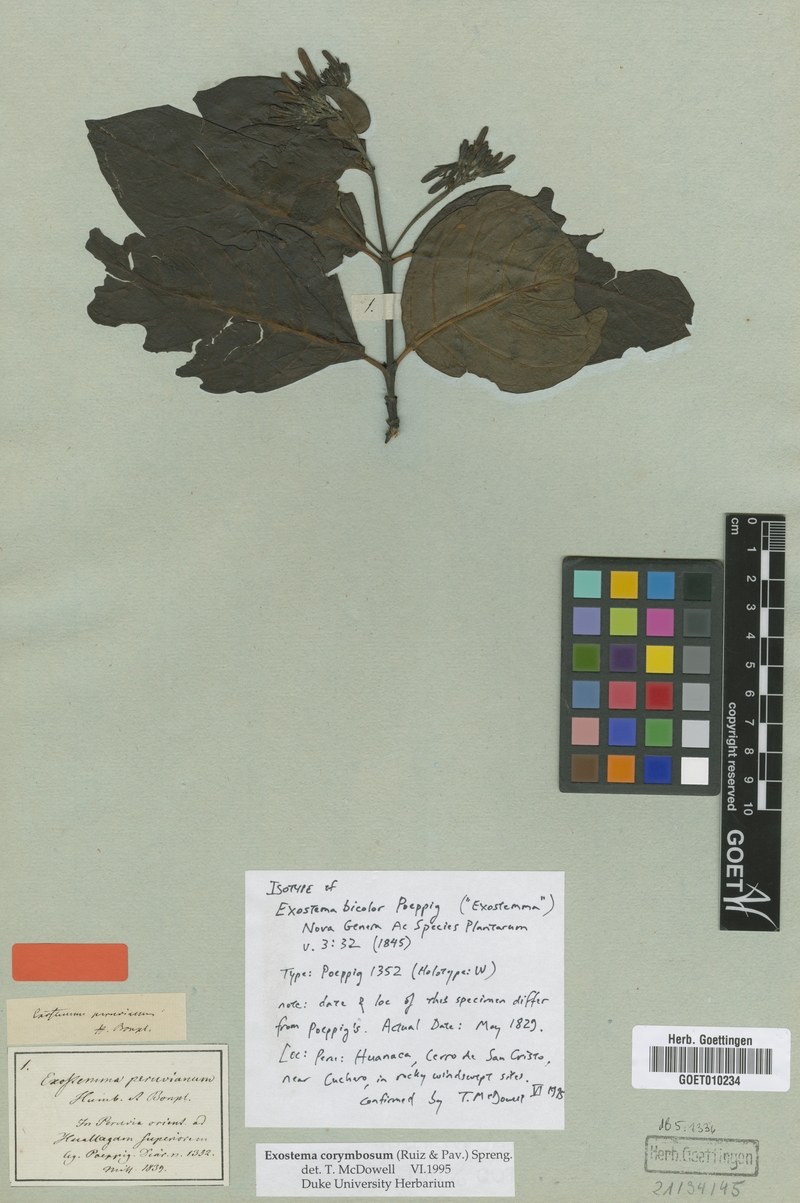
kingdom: Plantae
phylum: Tracheophyta
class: Magnoliopsida
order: Gentianales
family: Rubiaceae
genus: Motleyothamnus
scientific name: Motleyothamnus corymbosus
